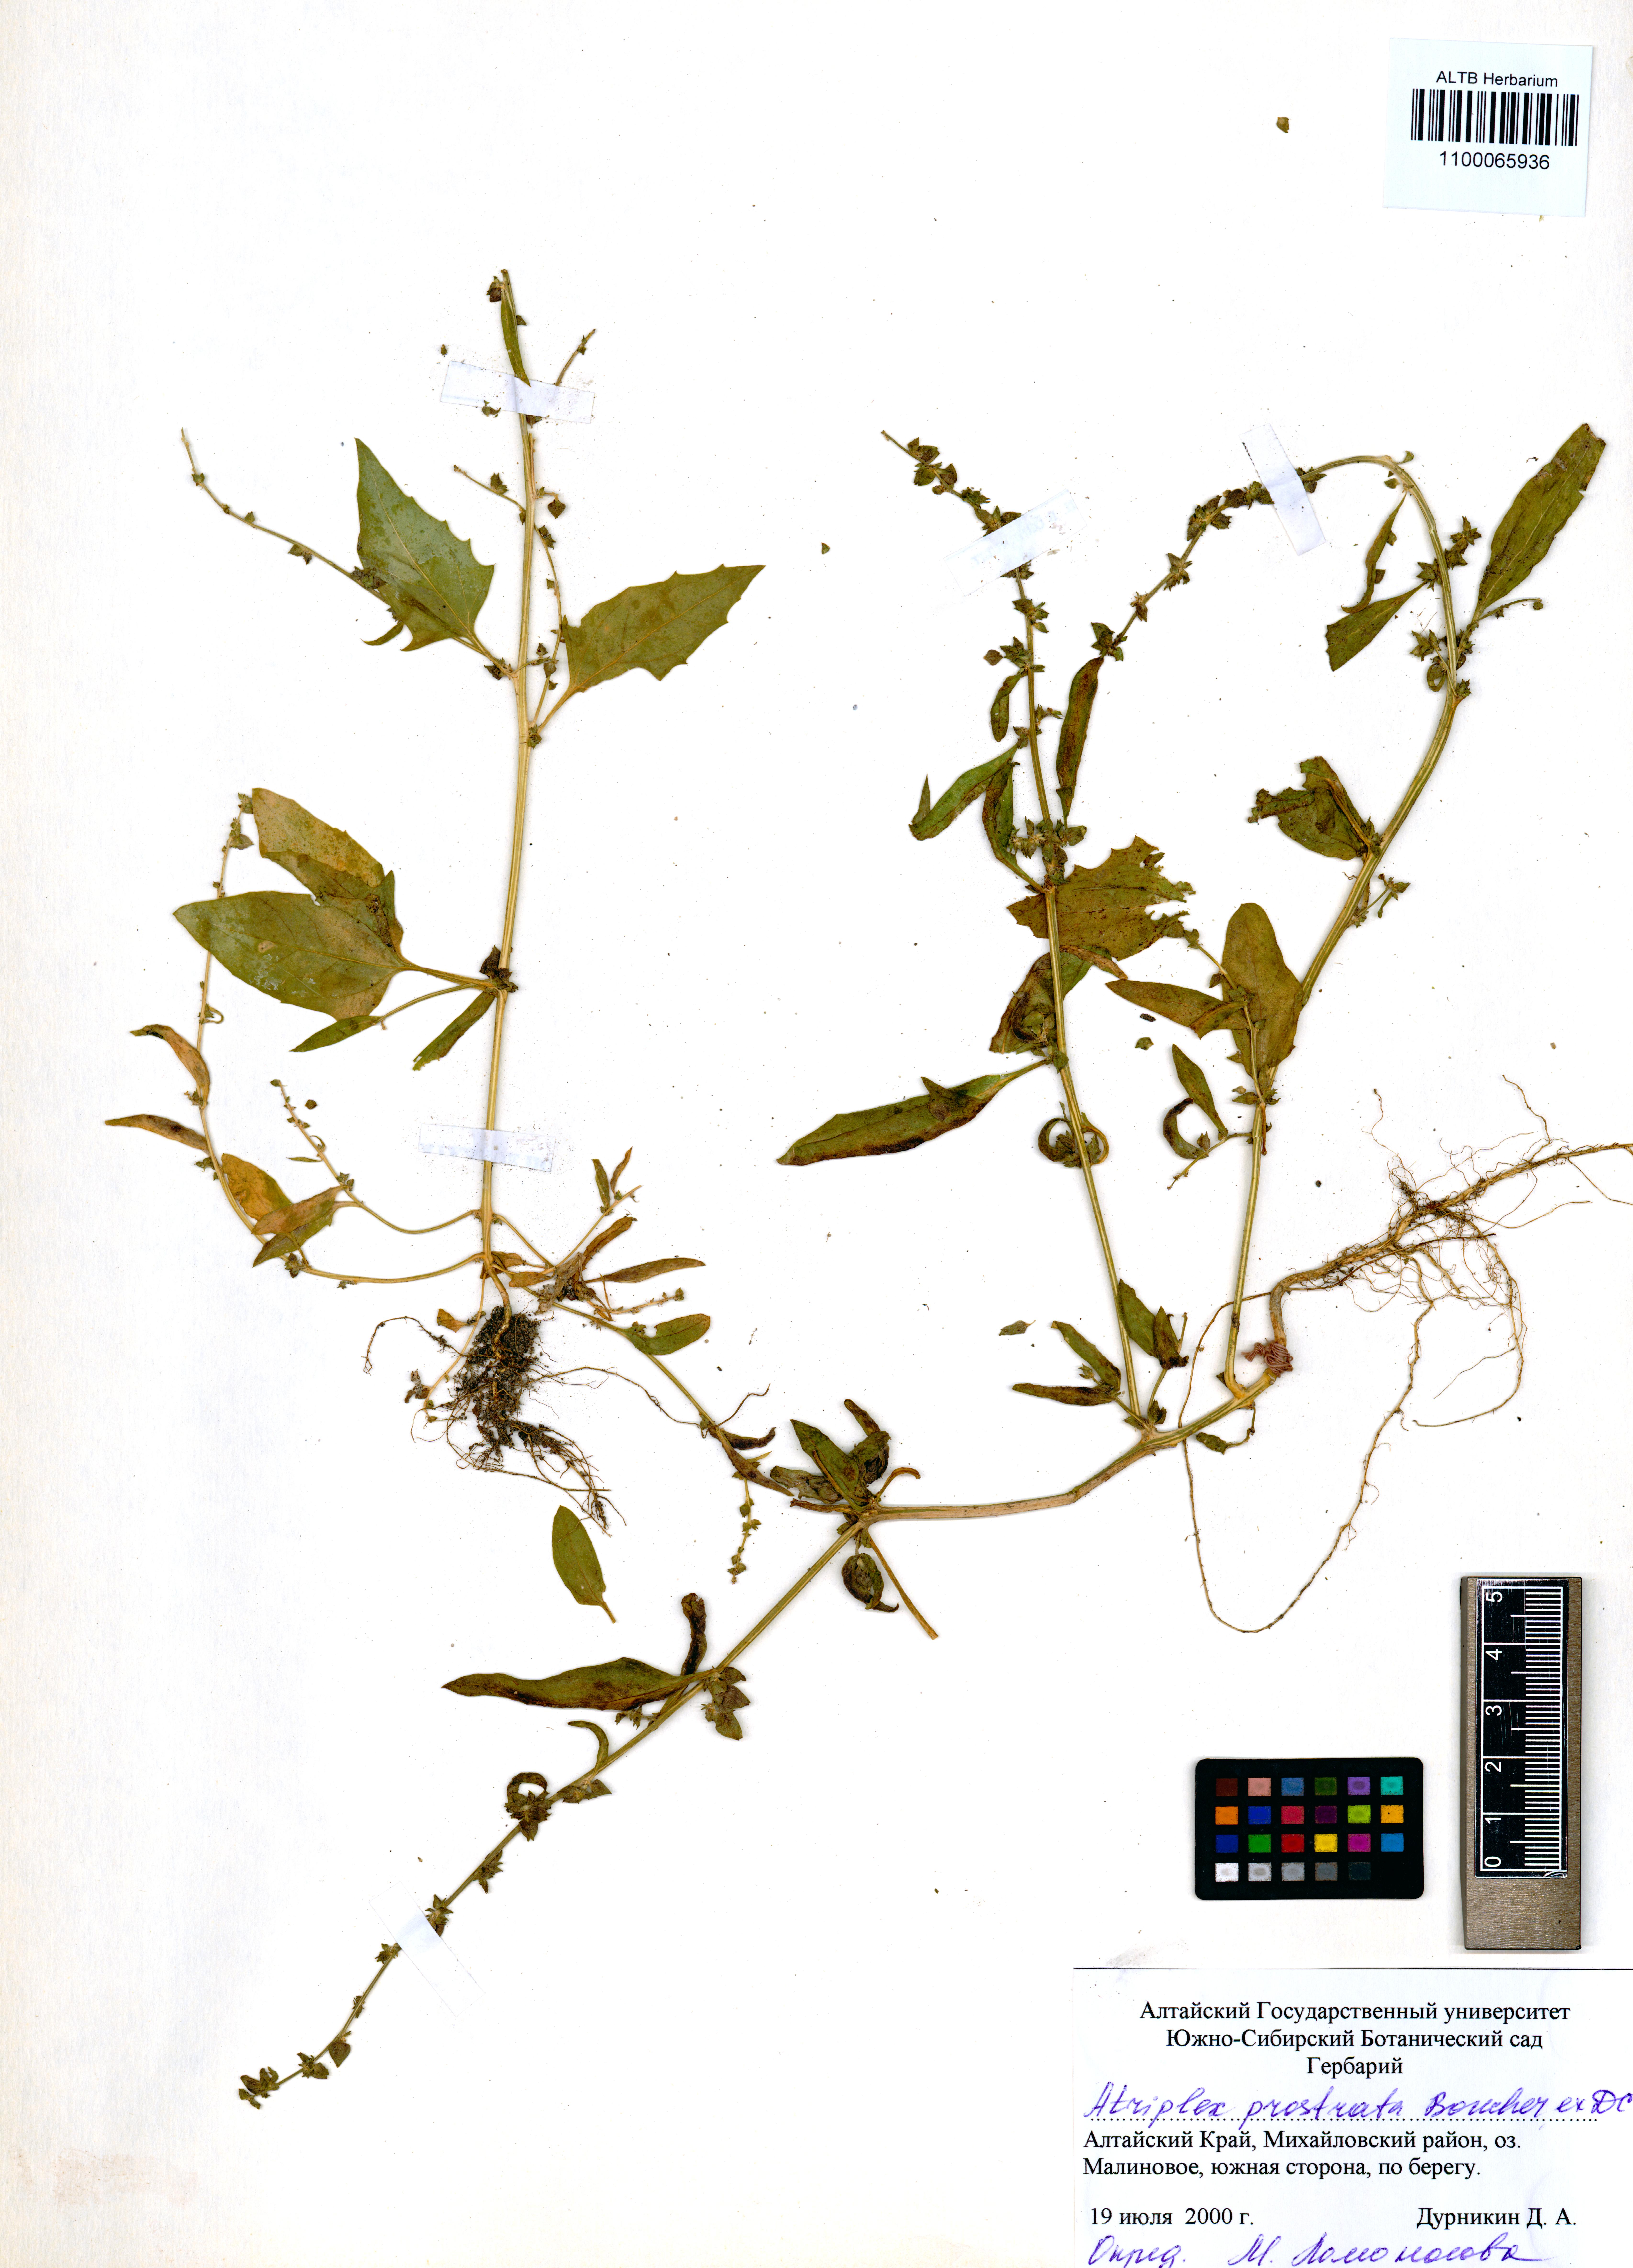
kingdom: Plantae
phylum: Tracheophyta
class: Magnoliopsida
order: Caryophyllales
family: Amaranthaceae
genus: Atriplex
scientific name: Atriplex prostrata
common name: Spear-leaved orache
